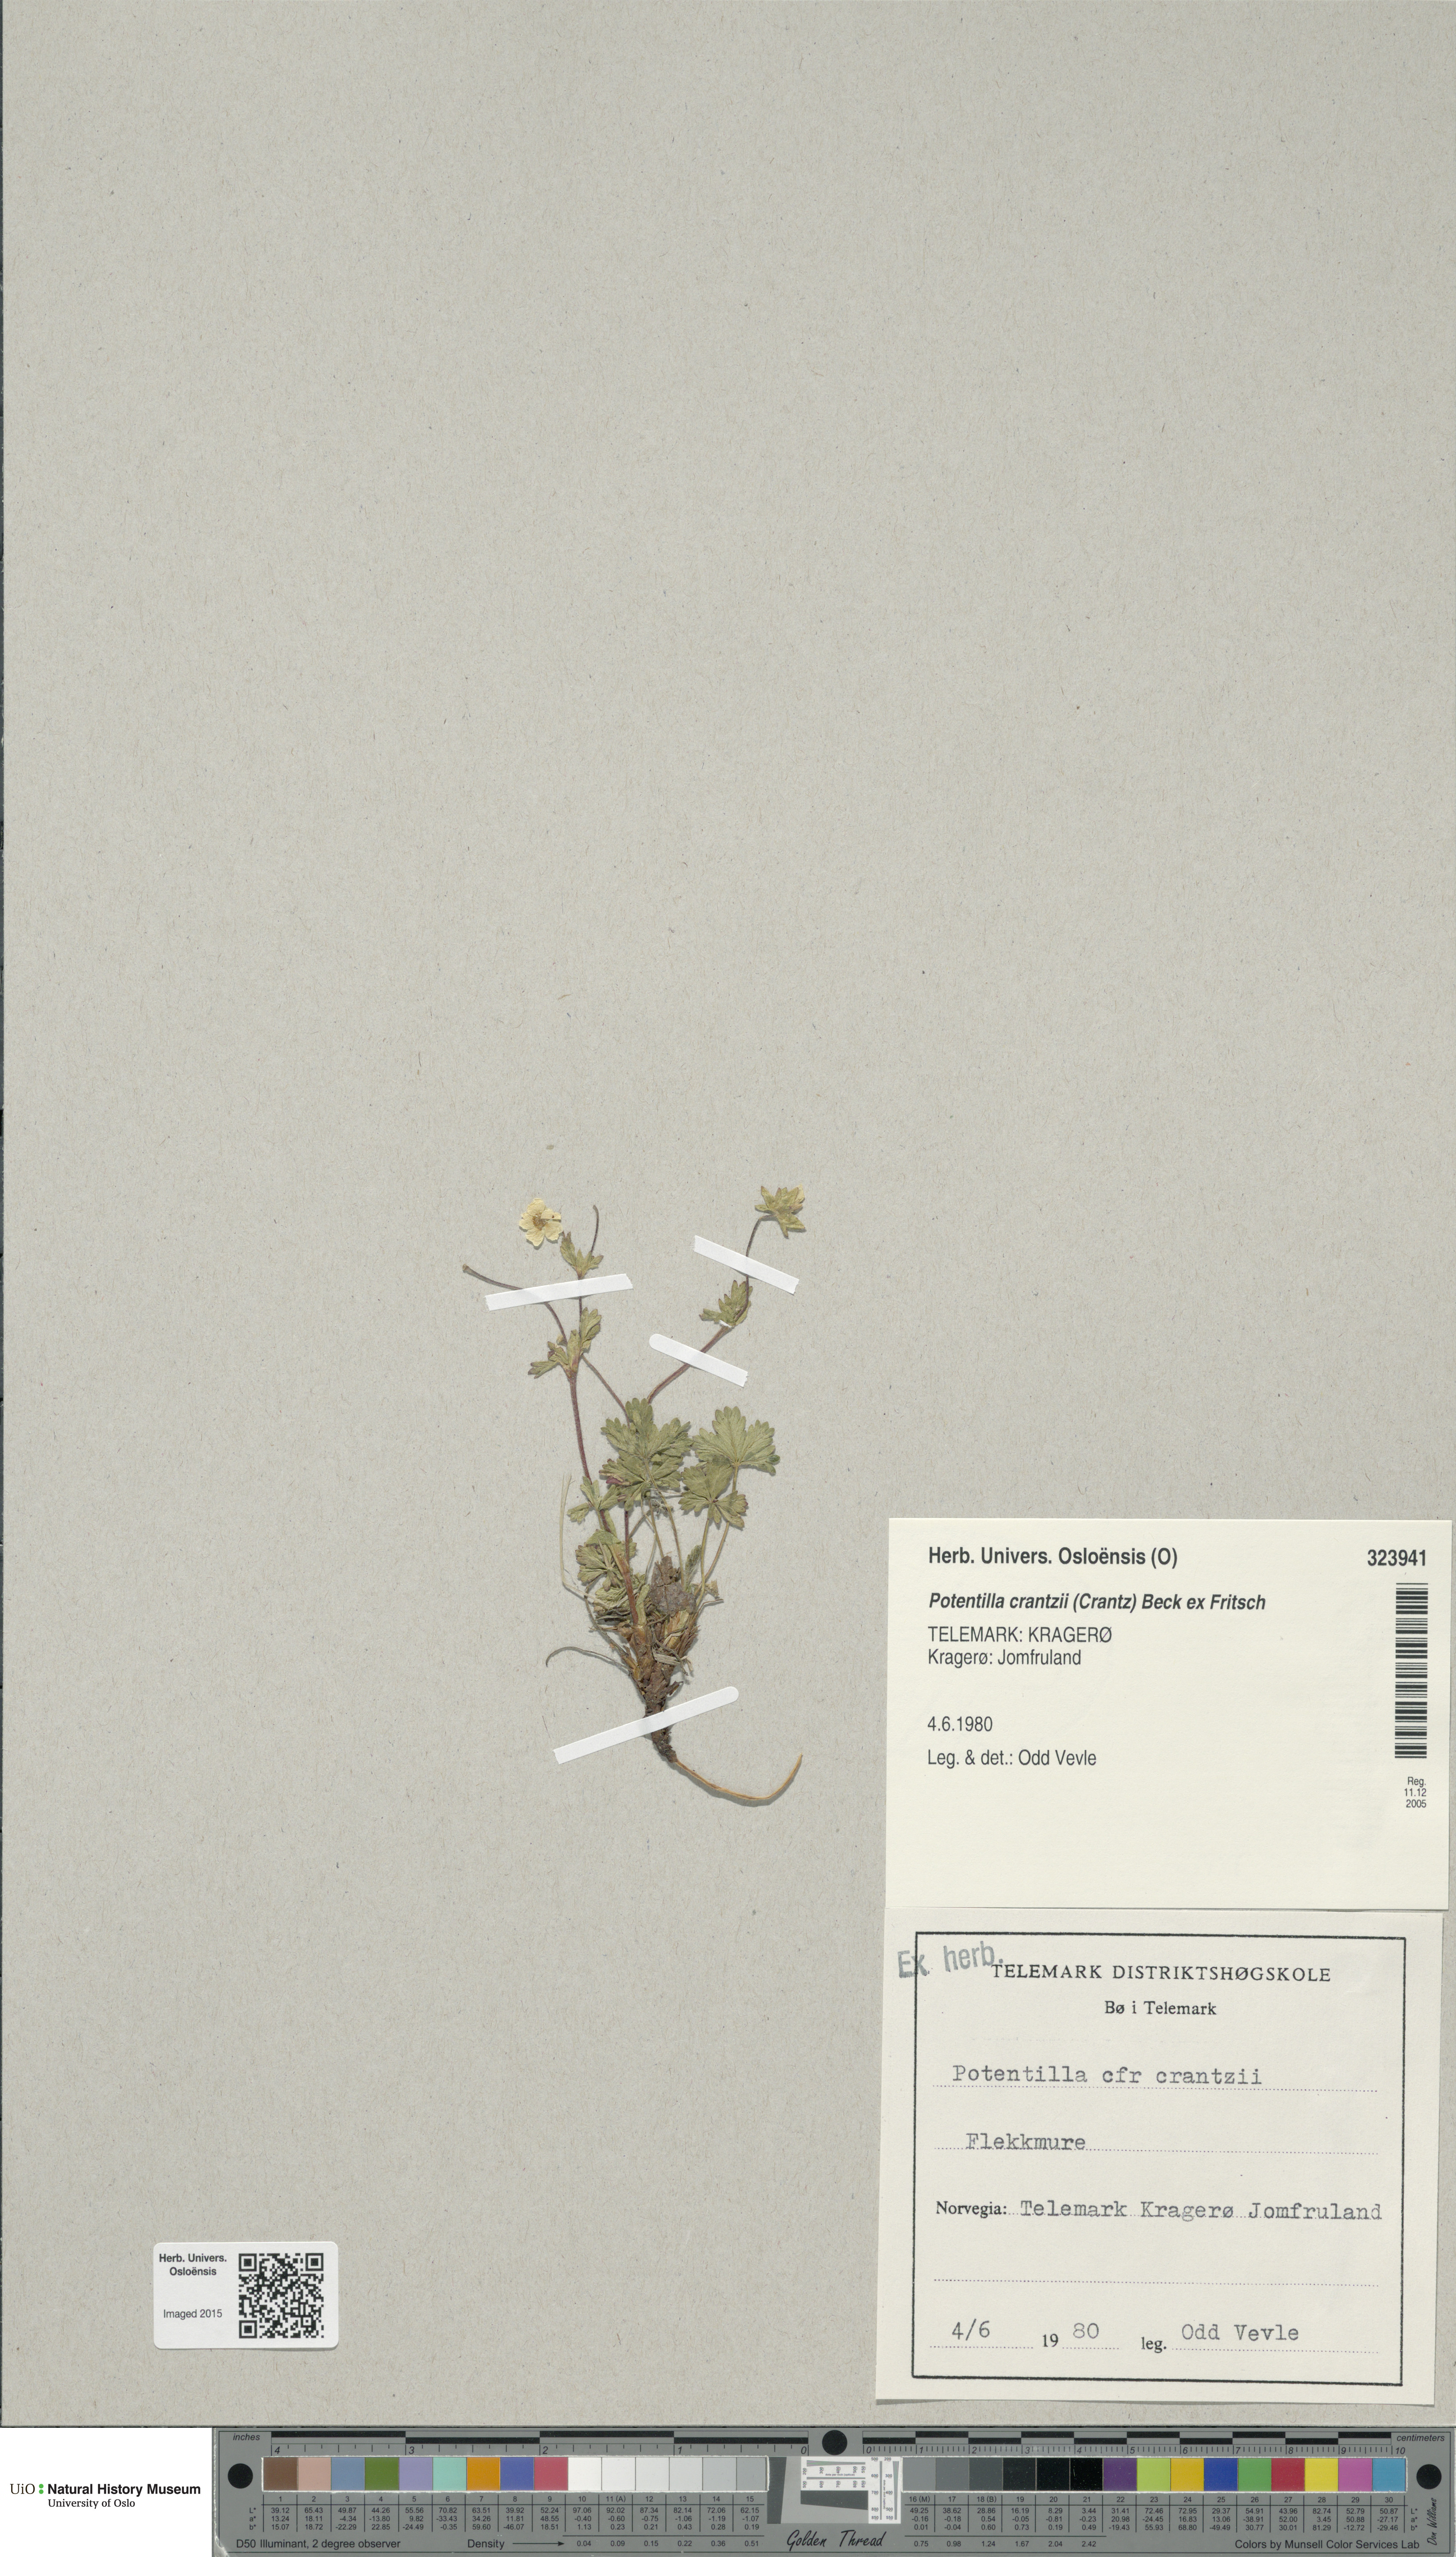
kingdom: Plantae
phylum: Tracheophyta
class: Magnoliopsida
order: Rosales
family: Rosaceae
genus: Potentilla
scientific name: Potentilla crantzii
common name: Alpine cinquefoil
